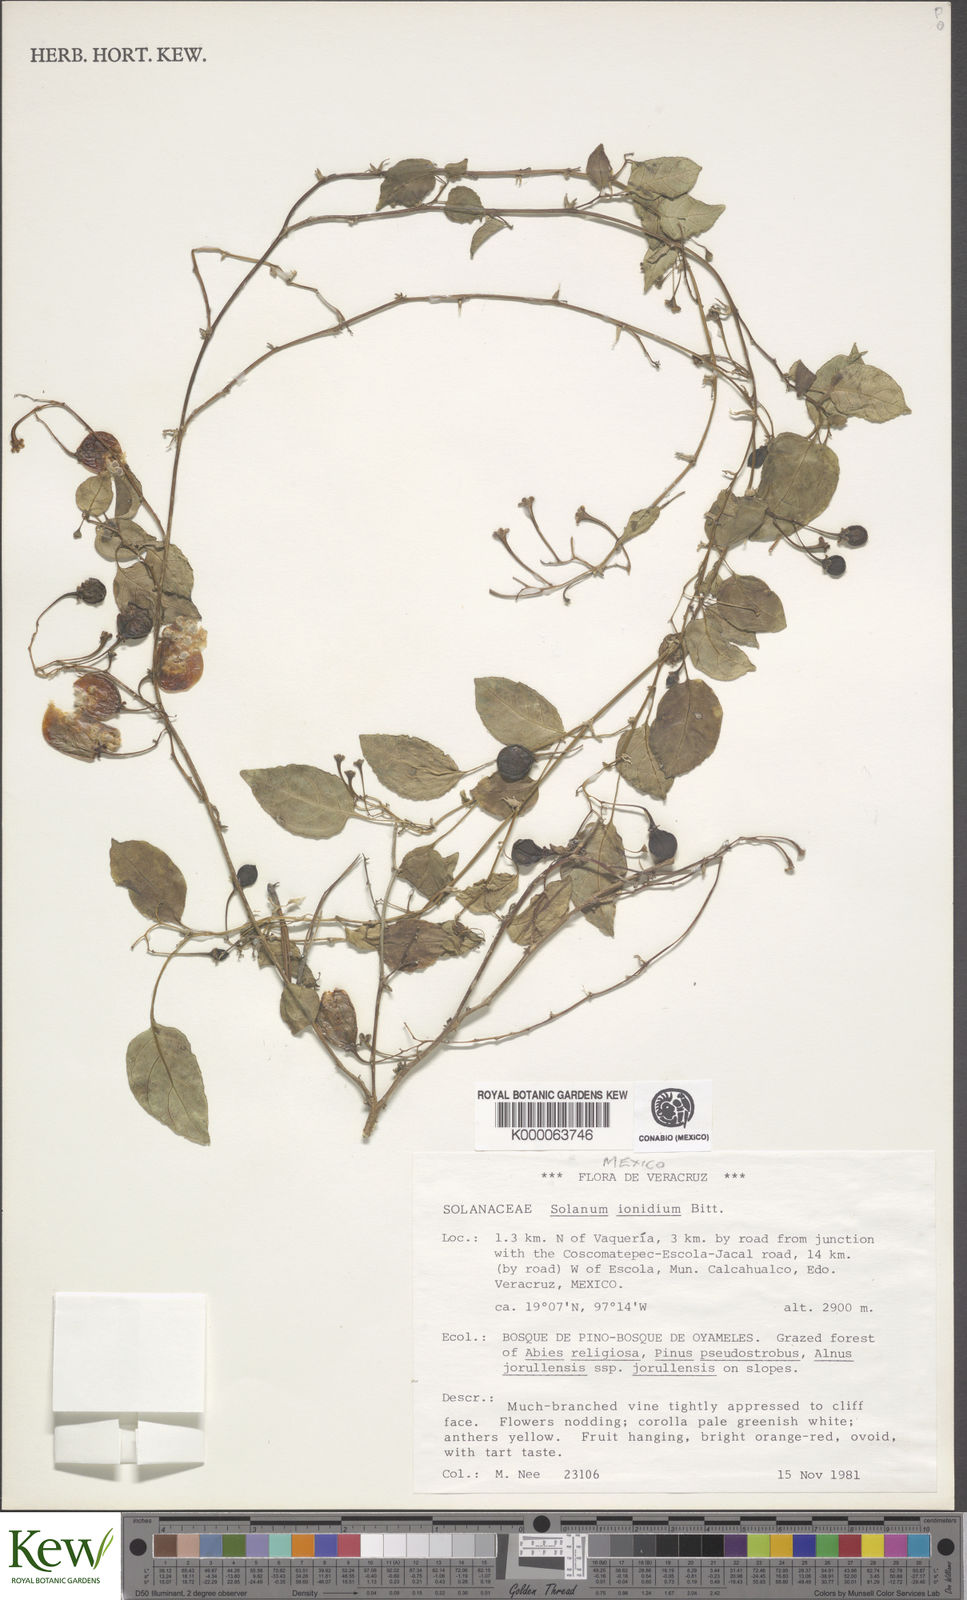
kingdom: Plantae
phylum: Tracheophyta
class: Magnoliopsida
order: Solanales
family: Solanaceae
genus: Solanum
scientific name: Solanum ionidium
